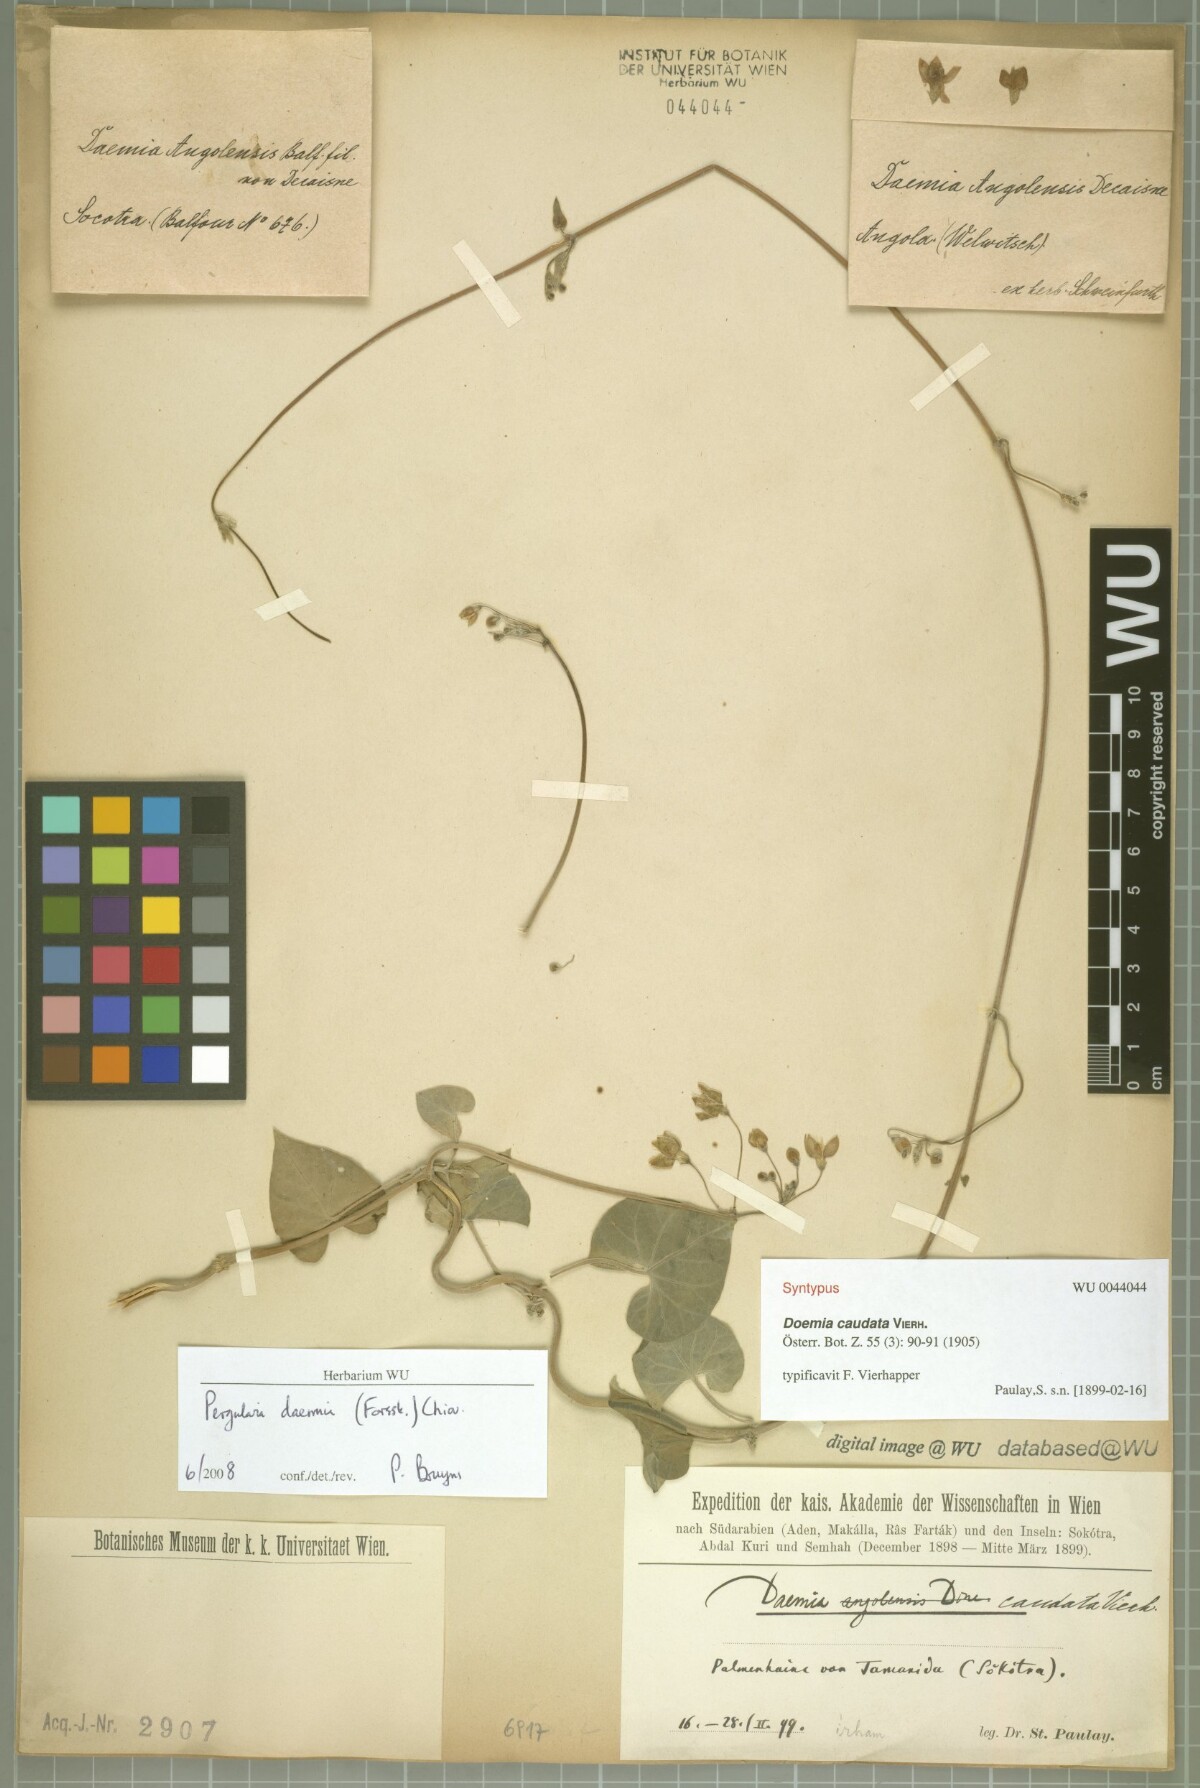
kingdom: Plantae
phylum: Tracheophyta
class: Magnoliopsida
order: Gentianales
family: Apocynaceae
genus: Pergularia
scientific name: Pergularia tomentosa
